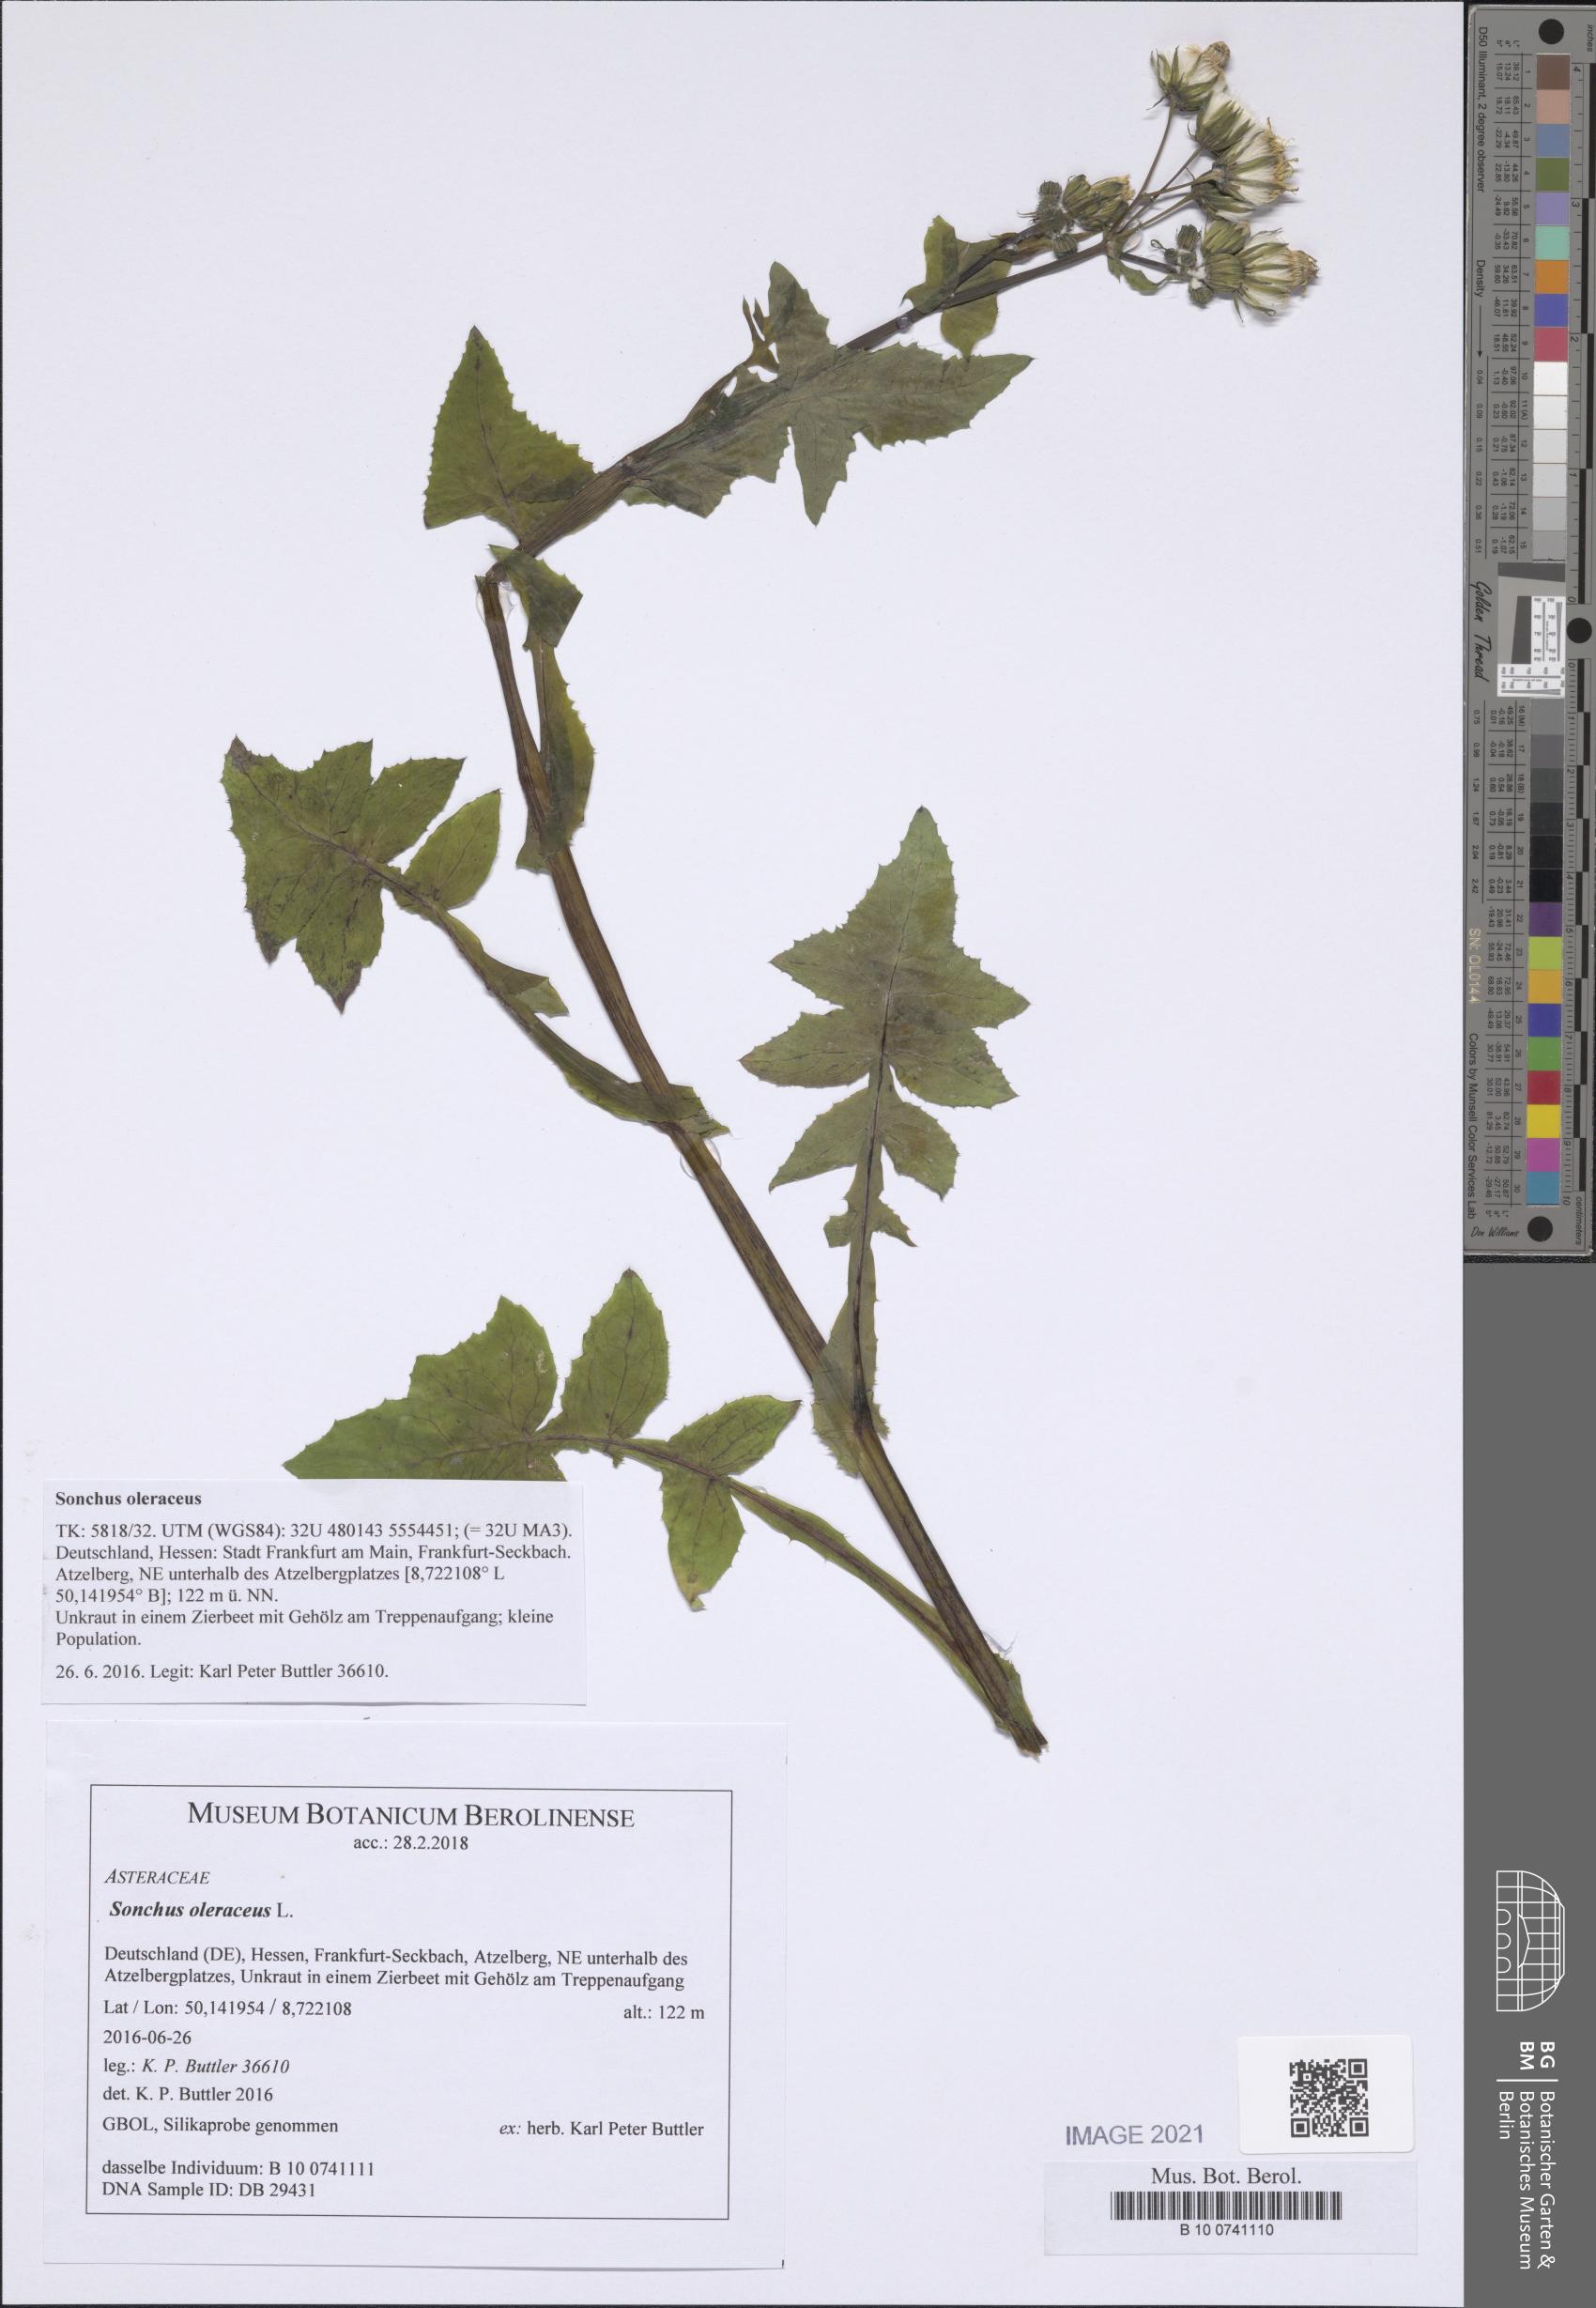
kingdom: Plantae
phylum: Tracheophyta
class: Magnoliopsida
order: Asterales
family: Asteraceae
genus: Sonchus
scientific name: Sonchus oleraceus
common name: Common sowthistle
